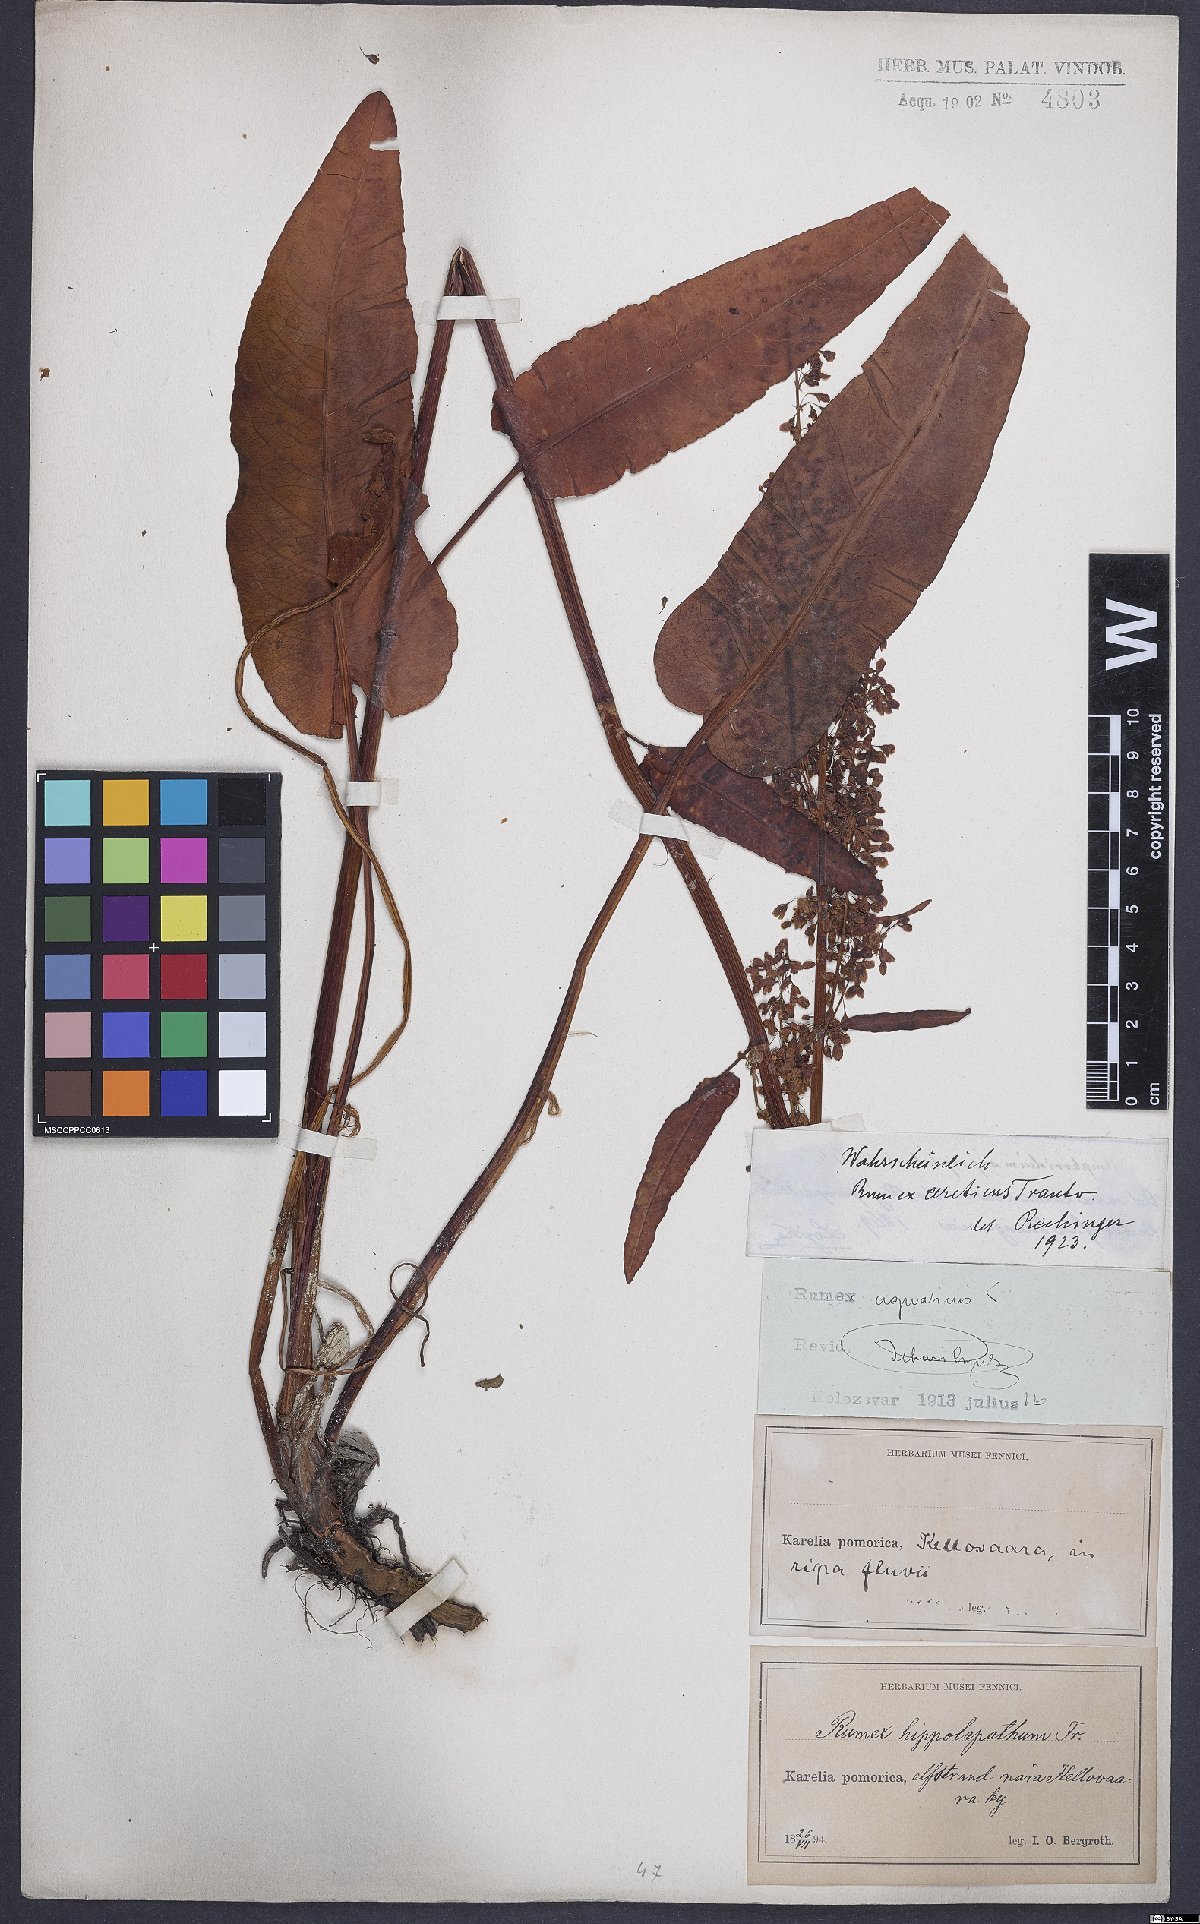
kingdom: Plantae
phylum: Tracheophyta
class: Magnoliopsida
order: Caryophyllales
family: Polygonaceae
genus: Rumex
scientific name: Rumex arcticus
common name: Arctic dock
